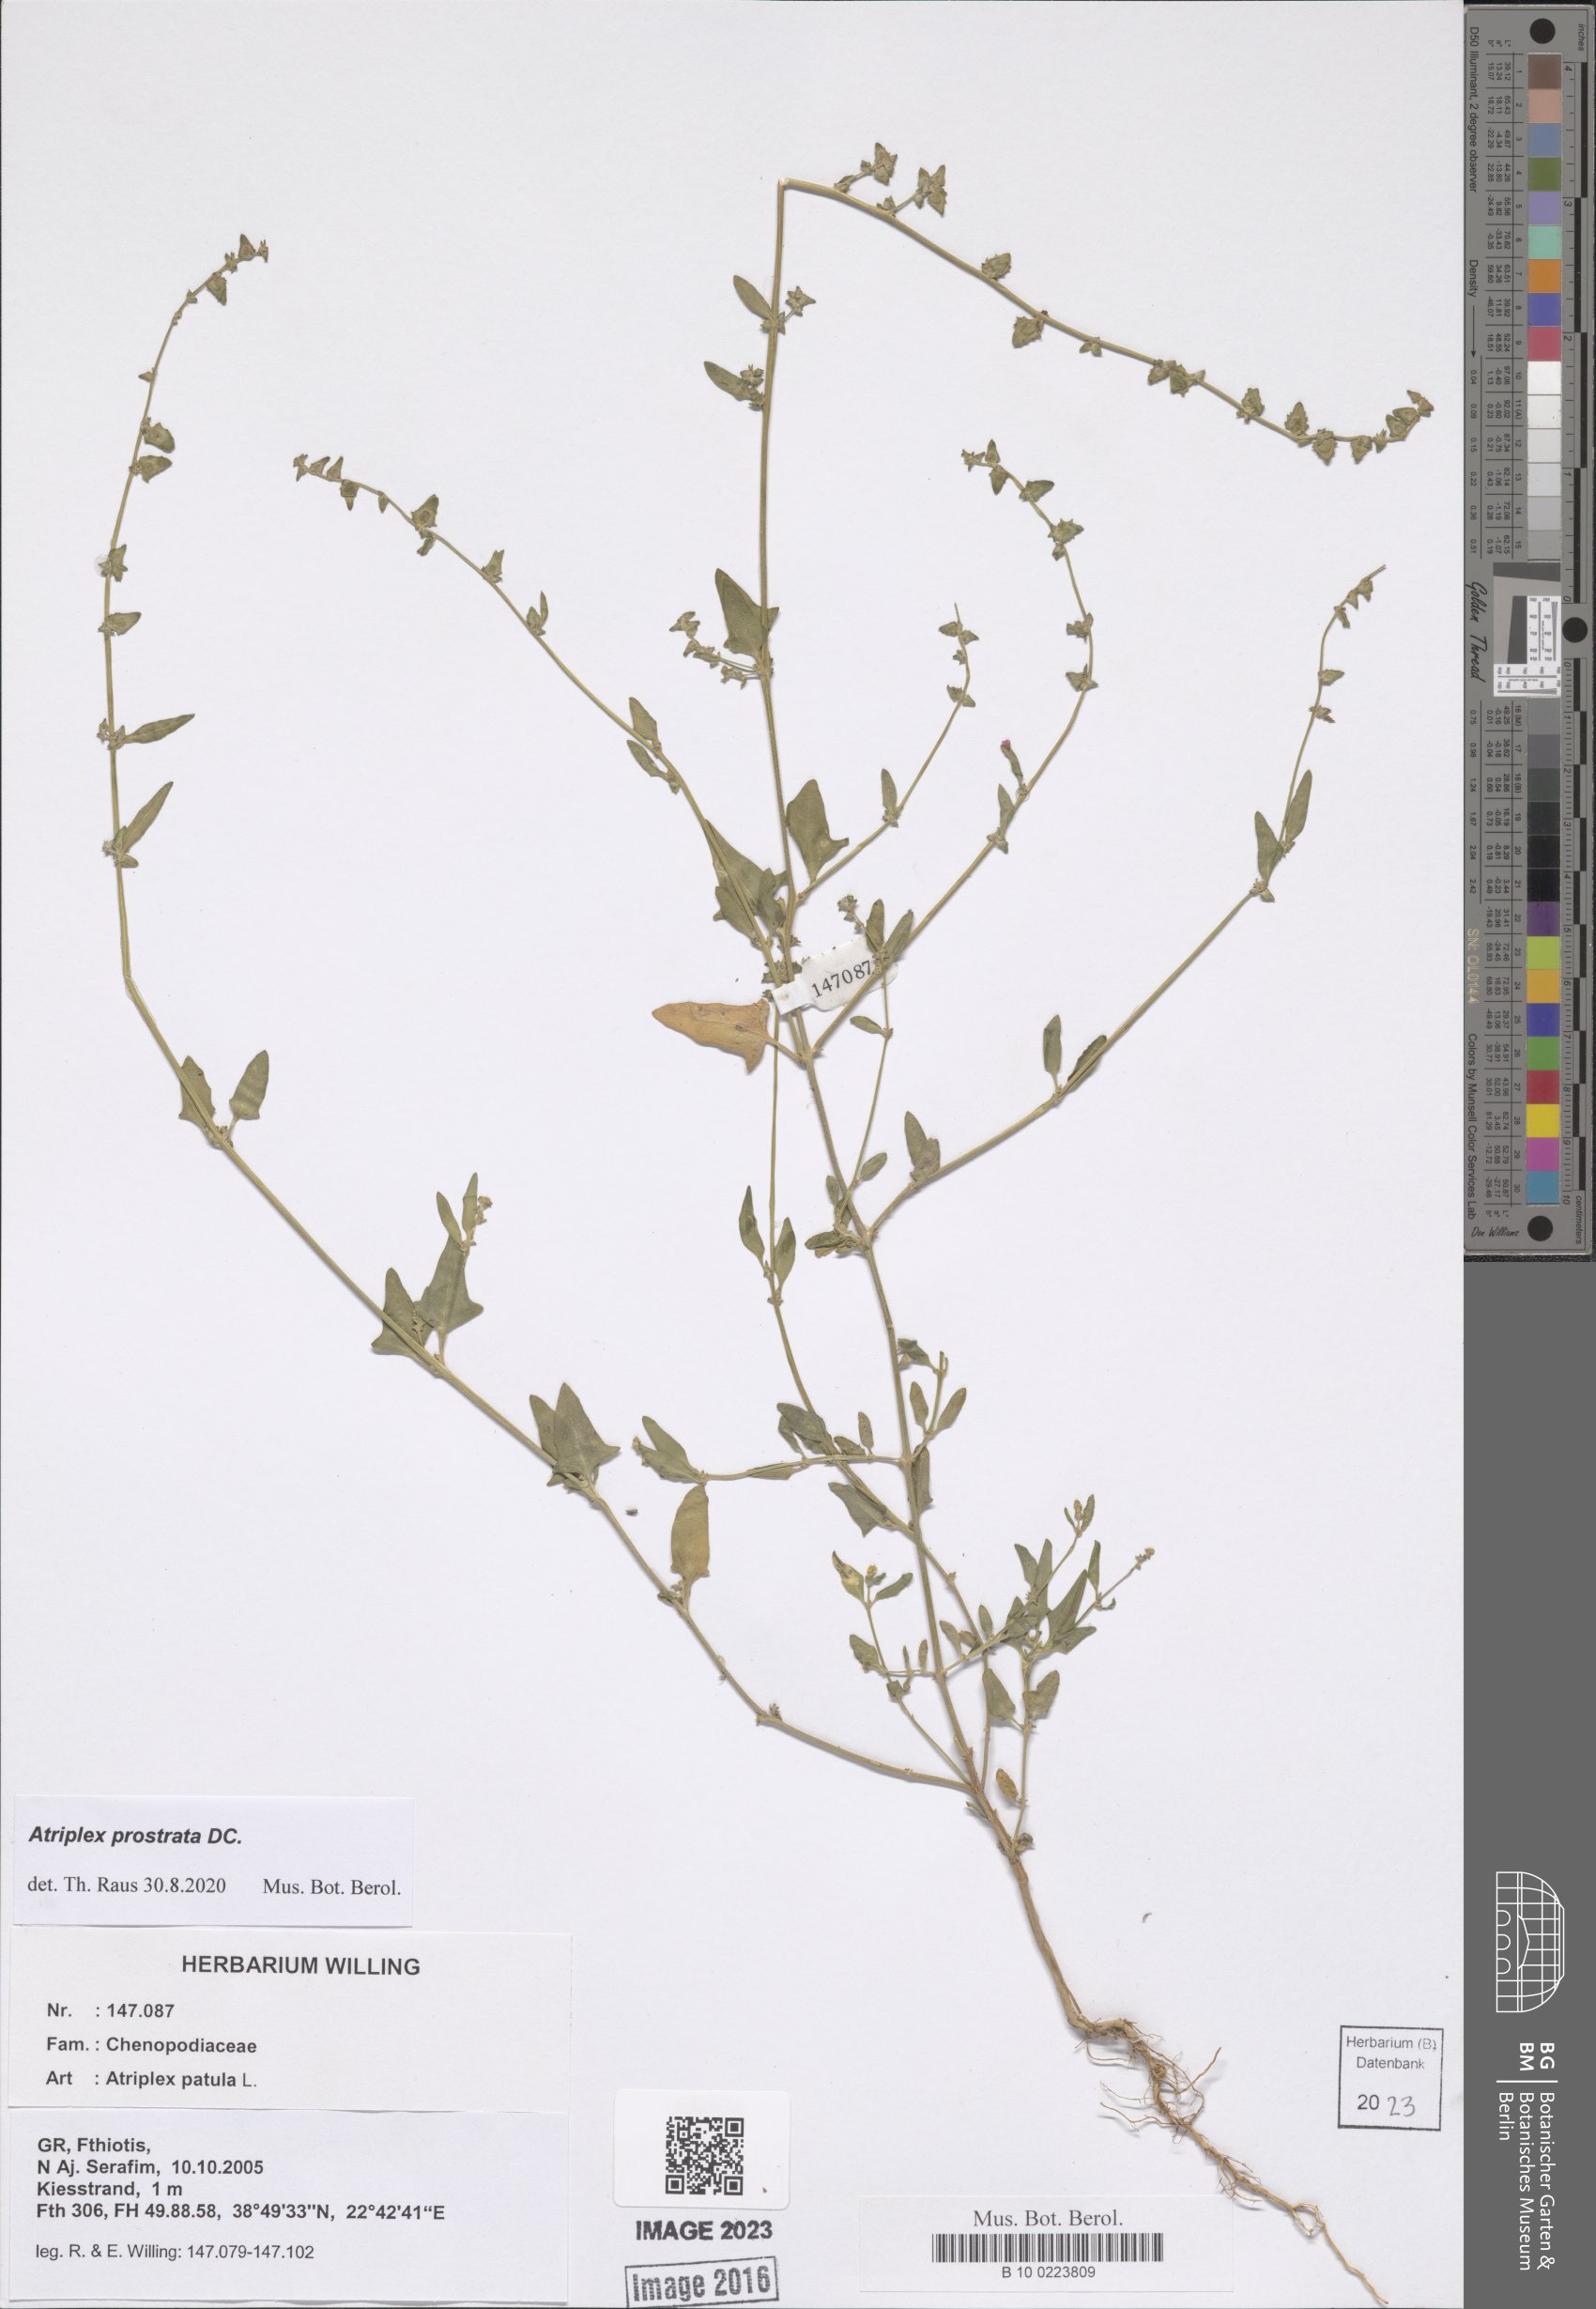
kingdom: Plantae
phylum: Tracheophyta
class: Magnoliopsida
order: Caryophyllales
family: Amaranthaceae
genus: Atriplex
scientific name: Atriplex prostrata
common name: Spear-leaved orache
